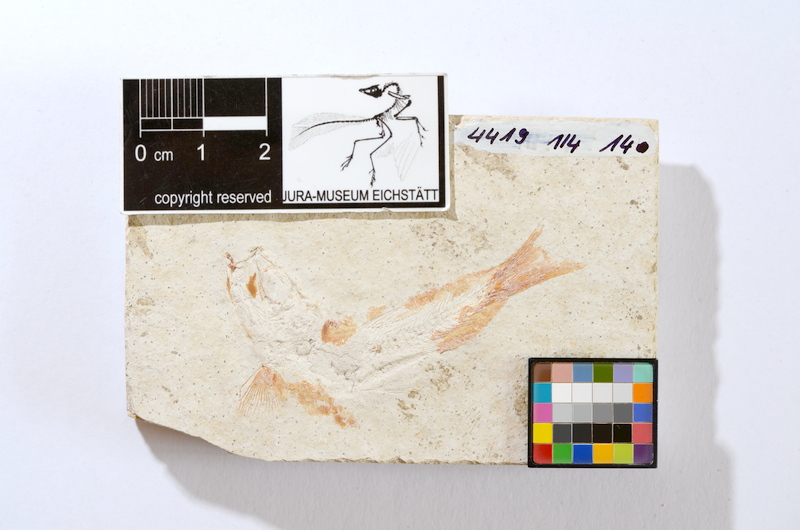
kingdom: Animalia
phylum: Chordata
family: Ascalaboidae
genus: Tharsis
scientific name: Tharsis dubius
